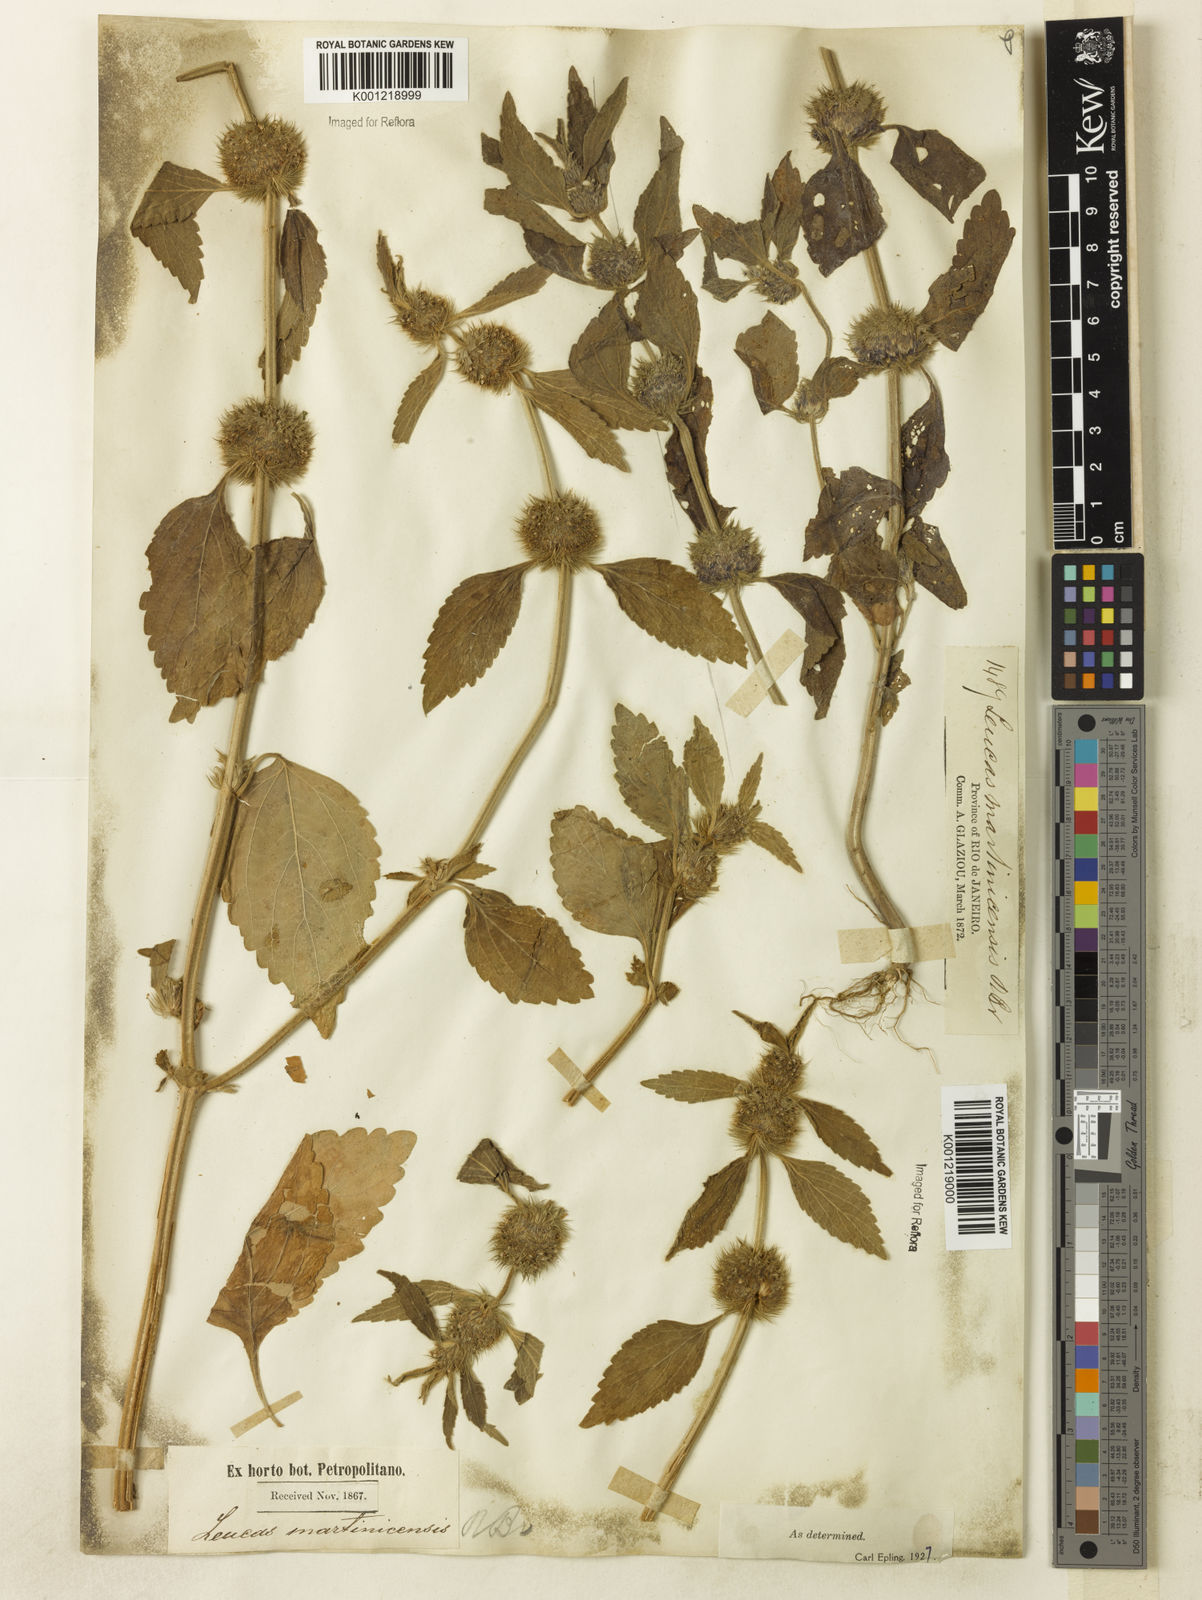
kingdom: Plantae
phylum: Tracheophyta
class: Magnoliopsida
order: Lamiales
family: Lamiaceae
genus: Leucas
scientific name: Leucas martinicensis
